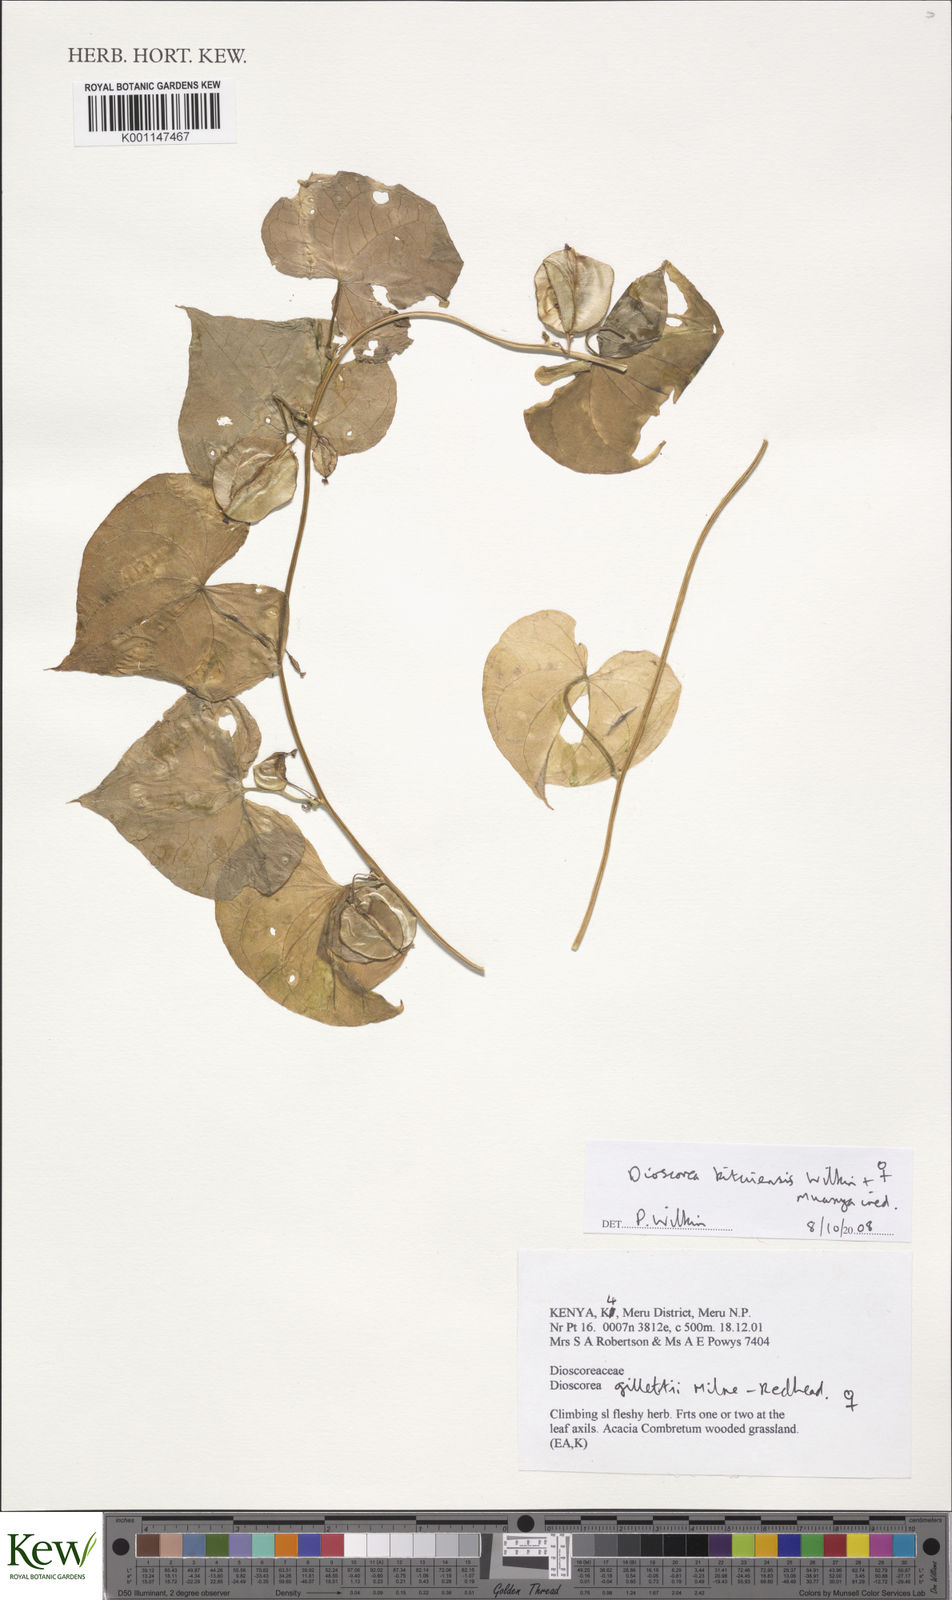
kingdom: Plantae
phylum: Tracheophyta
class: Liliopsida
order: Dioscoreales
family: Dioscoreaceae
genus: Dioscorea
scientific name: Dioscorea kituiensis
